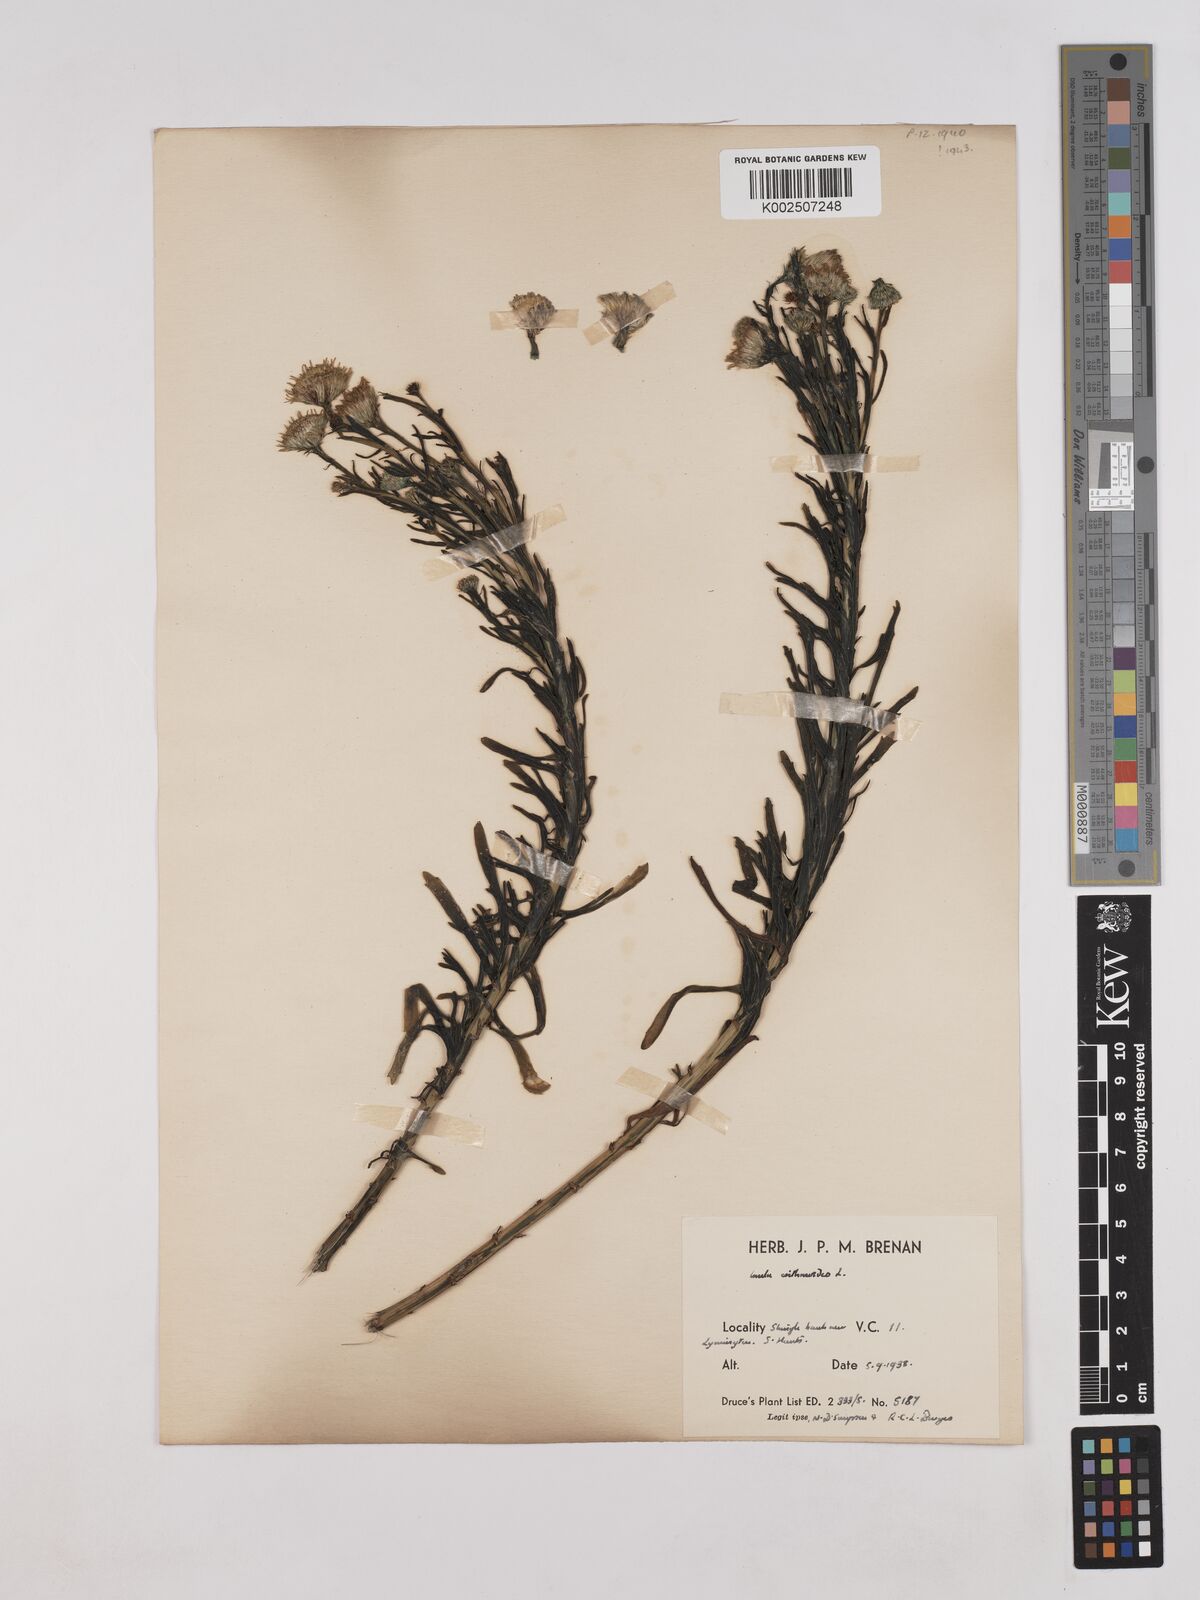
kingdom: Plantae
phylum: Tracheophyta
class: Magnoliopsida
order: Asterales
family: Asteraceae
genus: Limbarda
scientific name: Limbarda crithmoides
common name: Golden samphire
